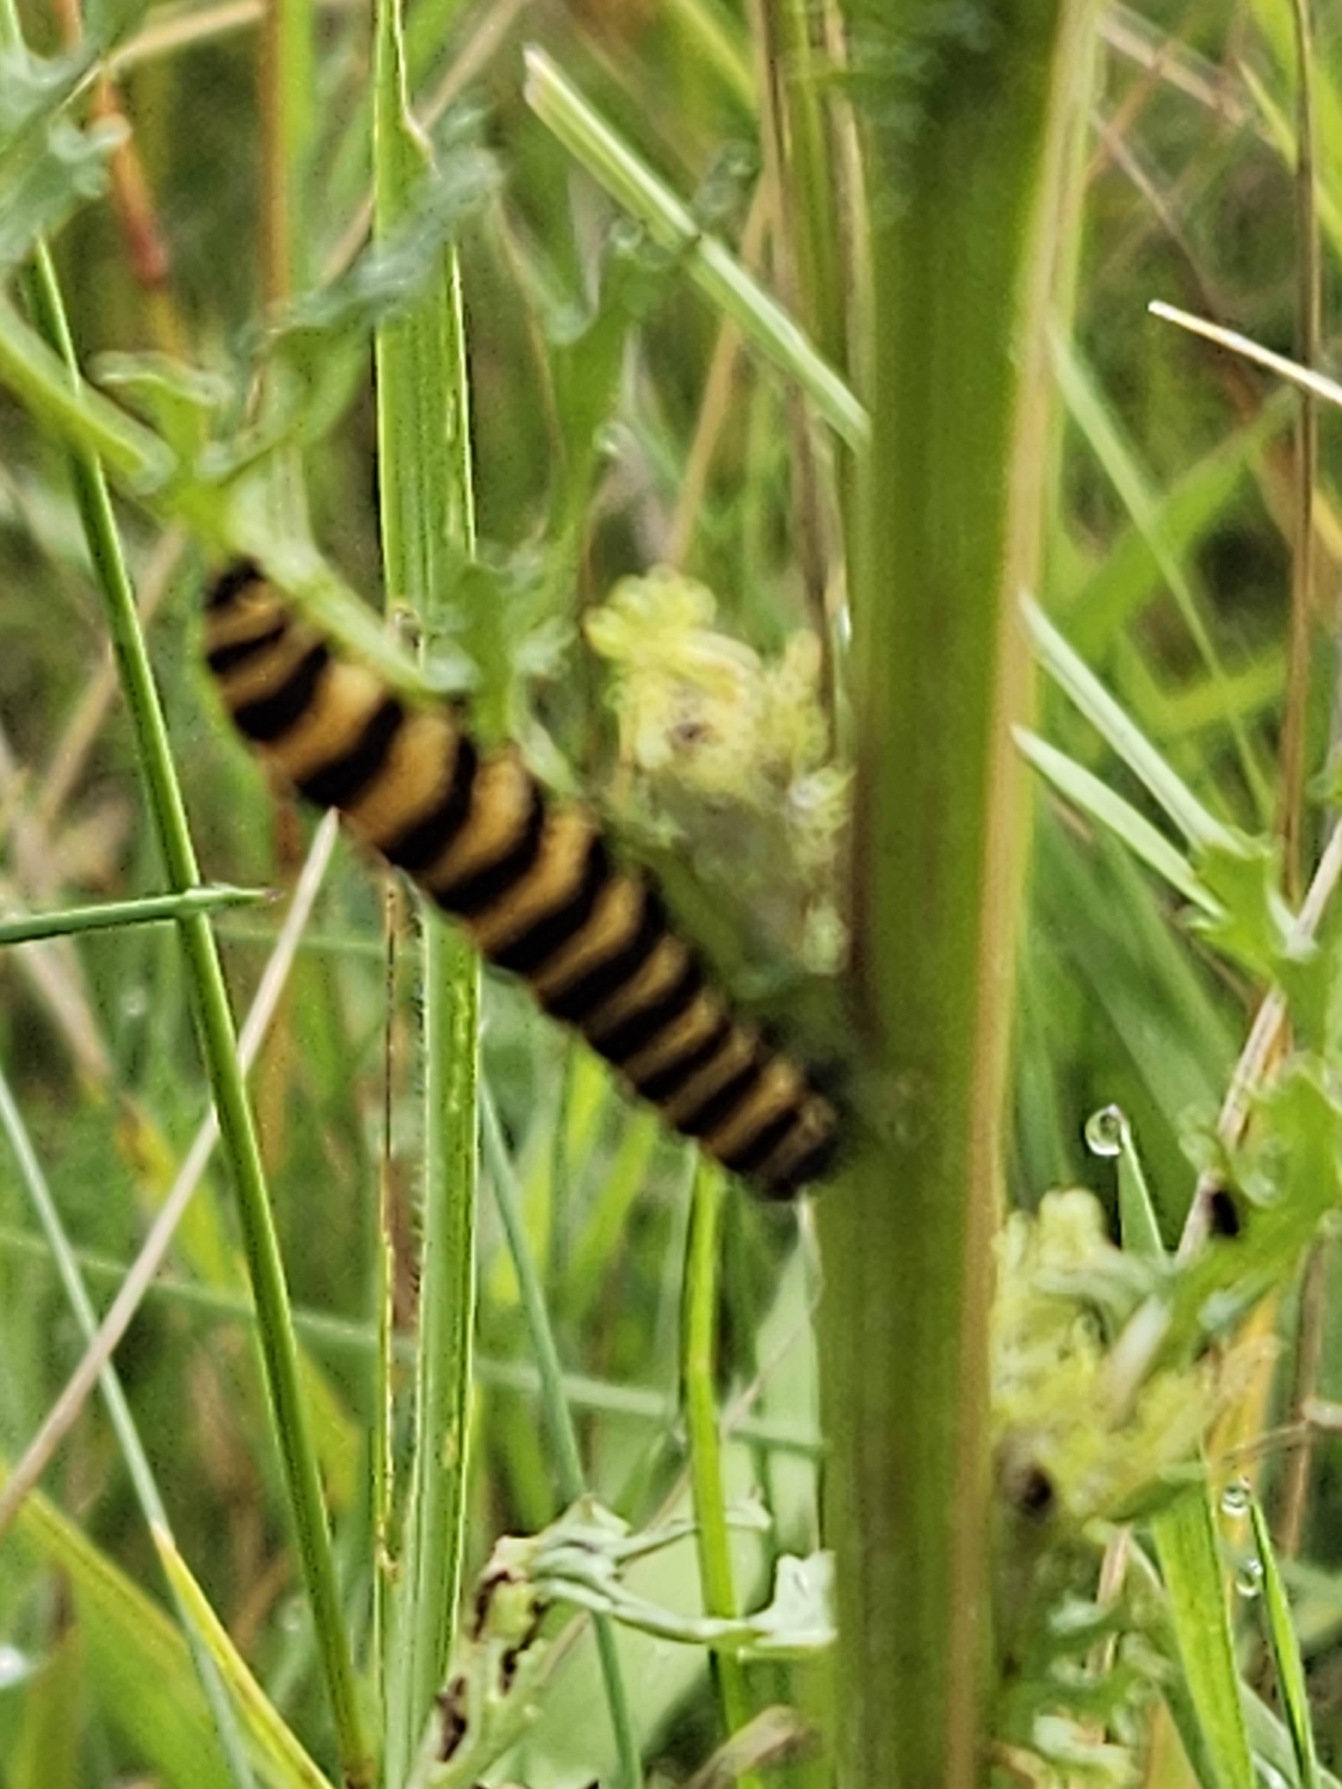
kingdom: Animalia
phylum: Arthropoda
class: Insecta
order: Lepidoptera
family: Erebidae
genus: Tyria
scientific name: Tyria jacobaeae
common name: Blodplet
